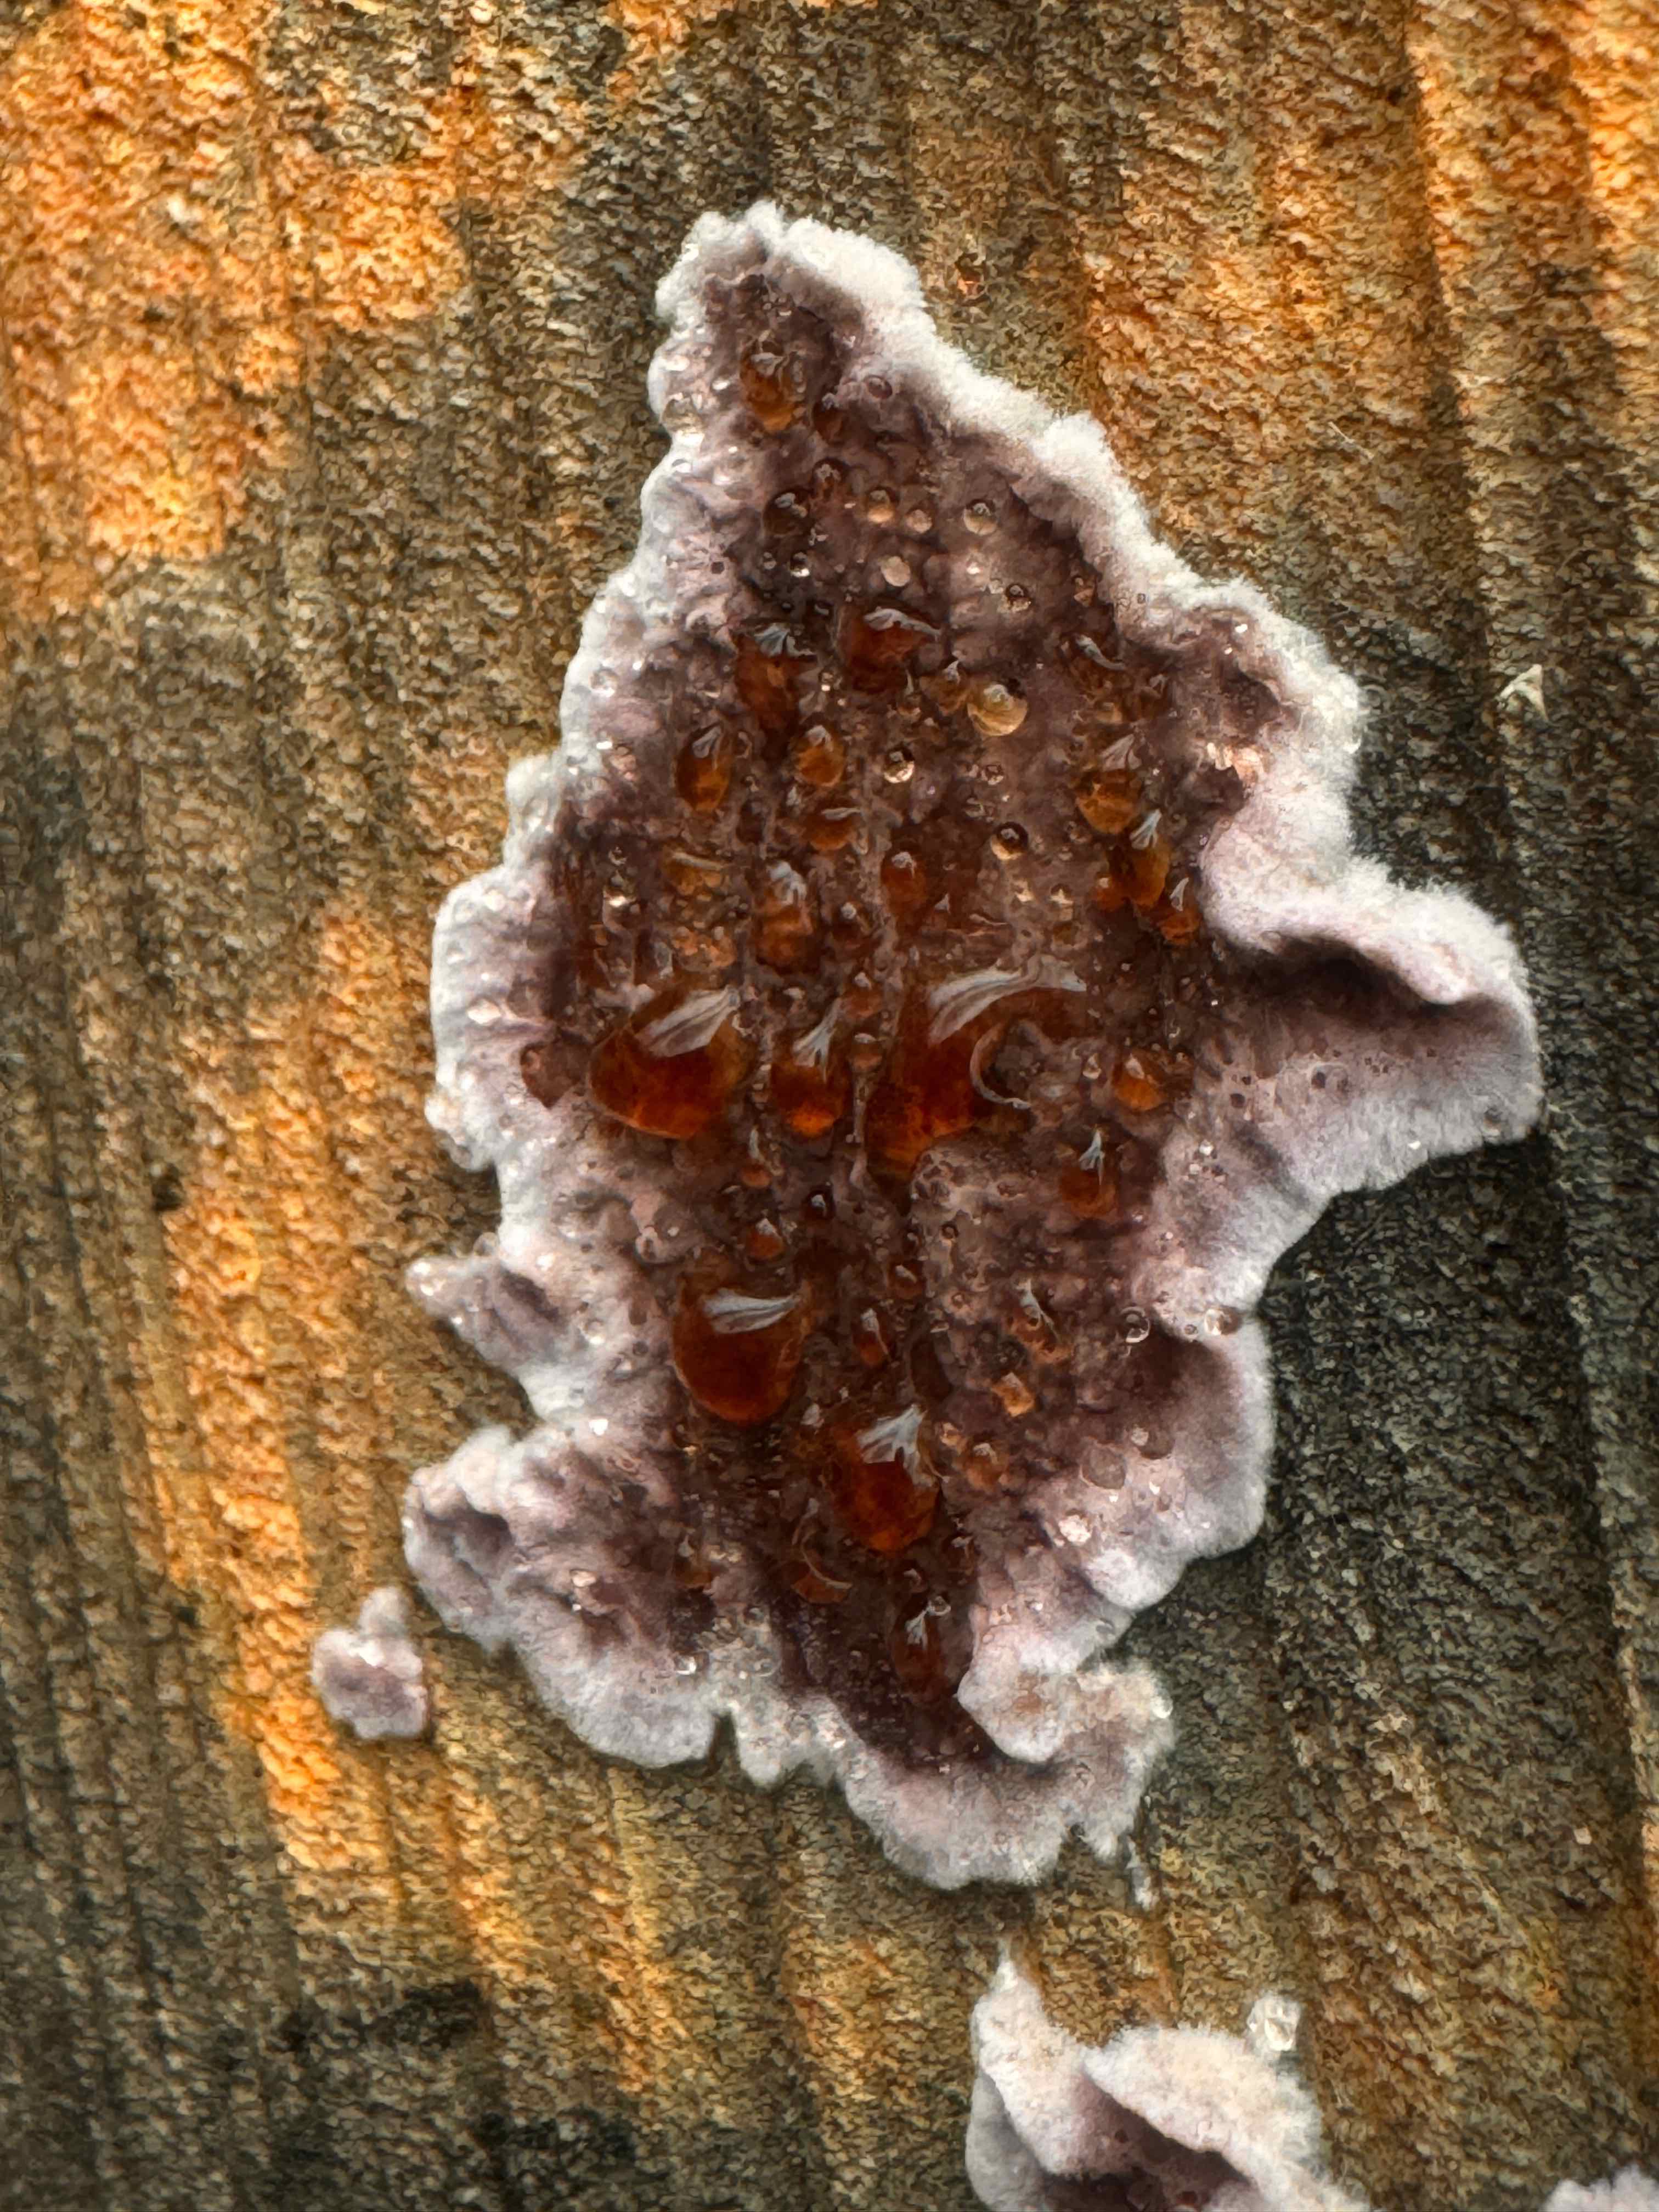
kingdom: Fungi
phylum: Basidiomycota
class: Agaricomycetes
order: Agaricales
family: Cyphellaceae
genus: Chondrostereum
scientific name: Chondrostereum purpureum
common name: purpurlædersvamp
